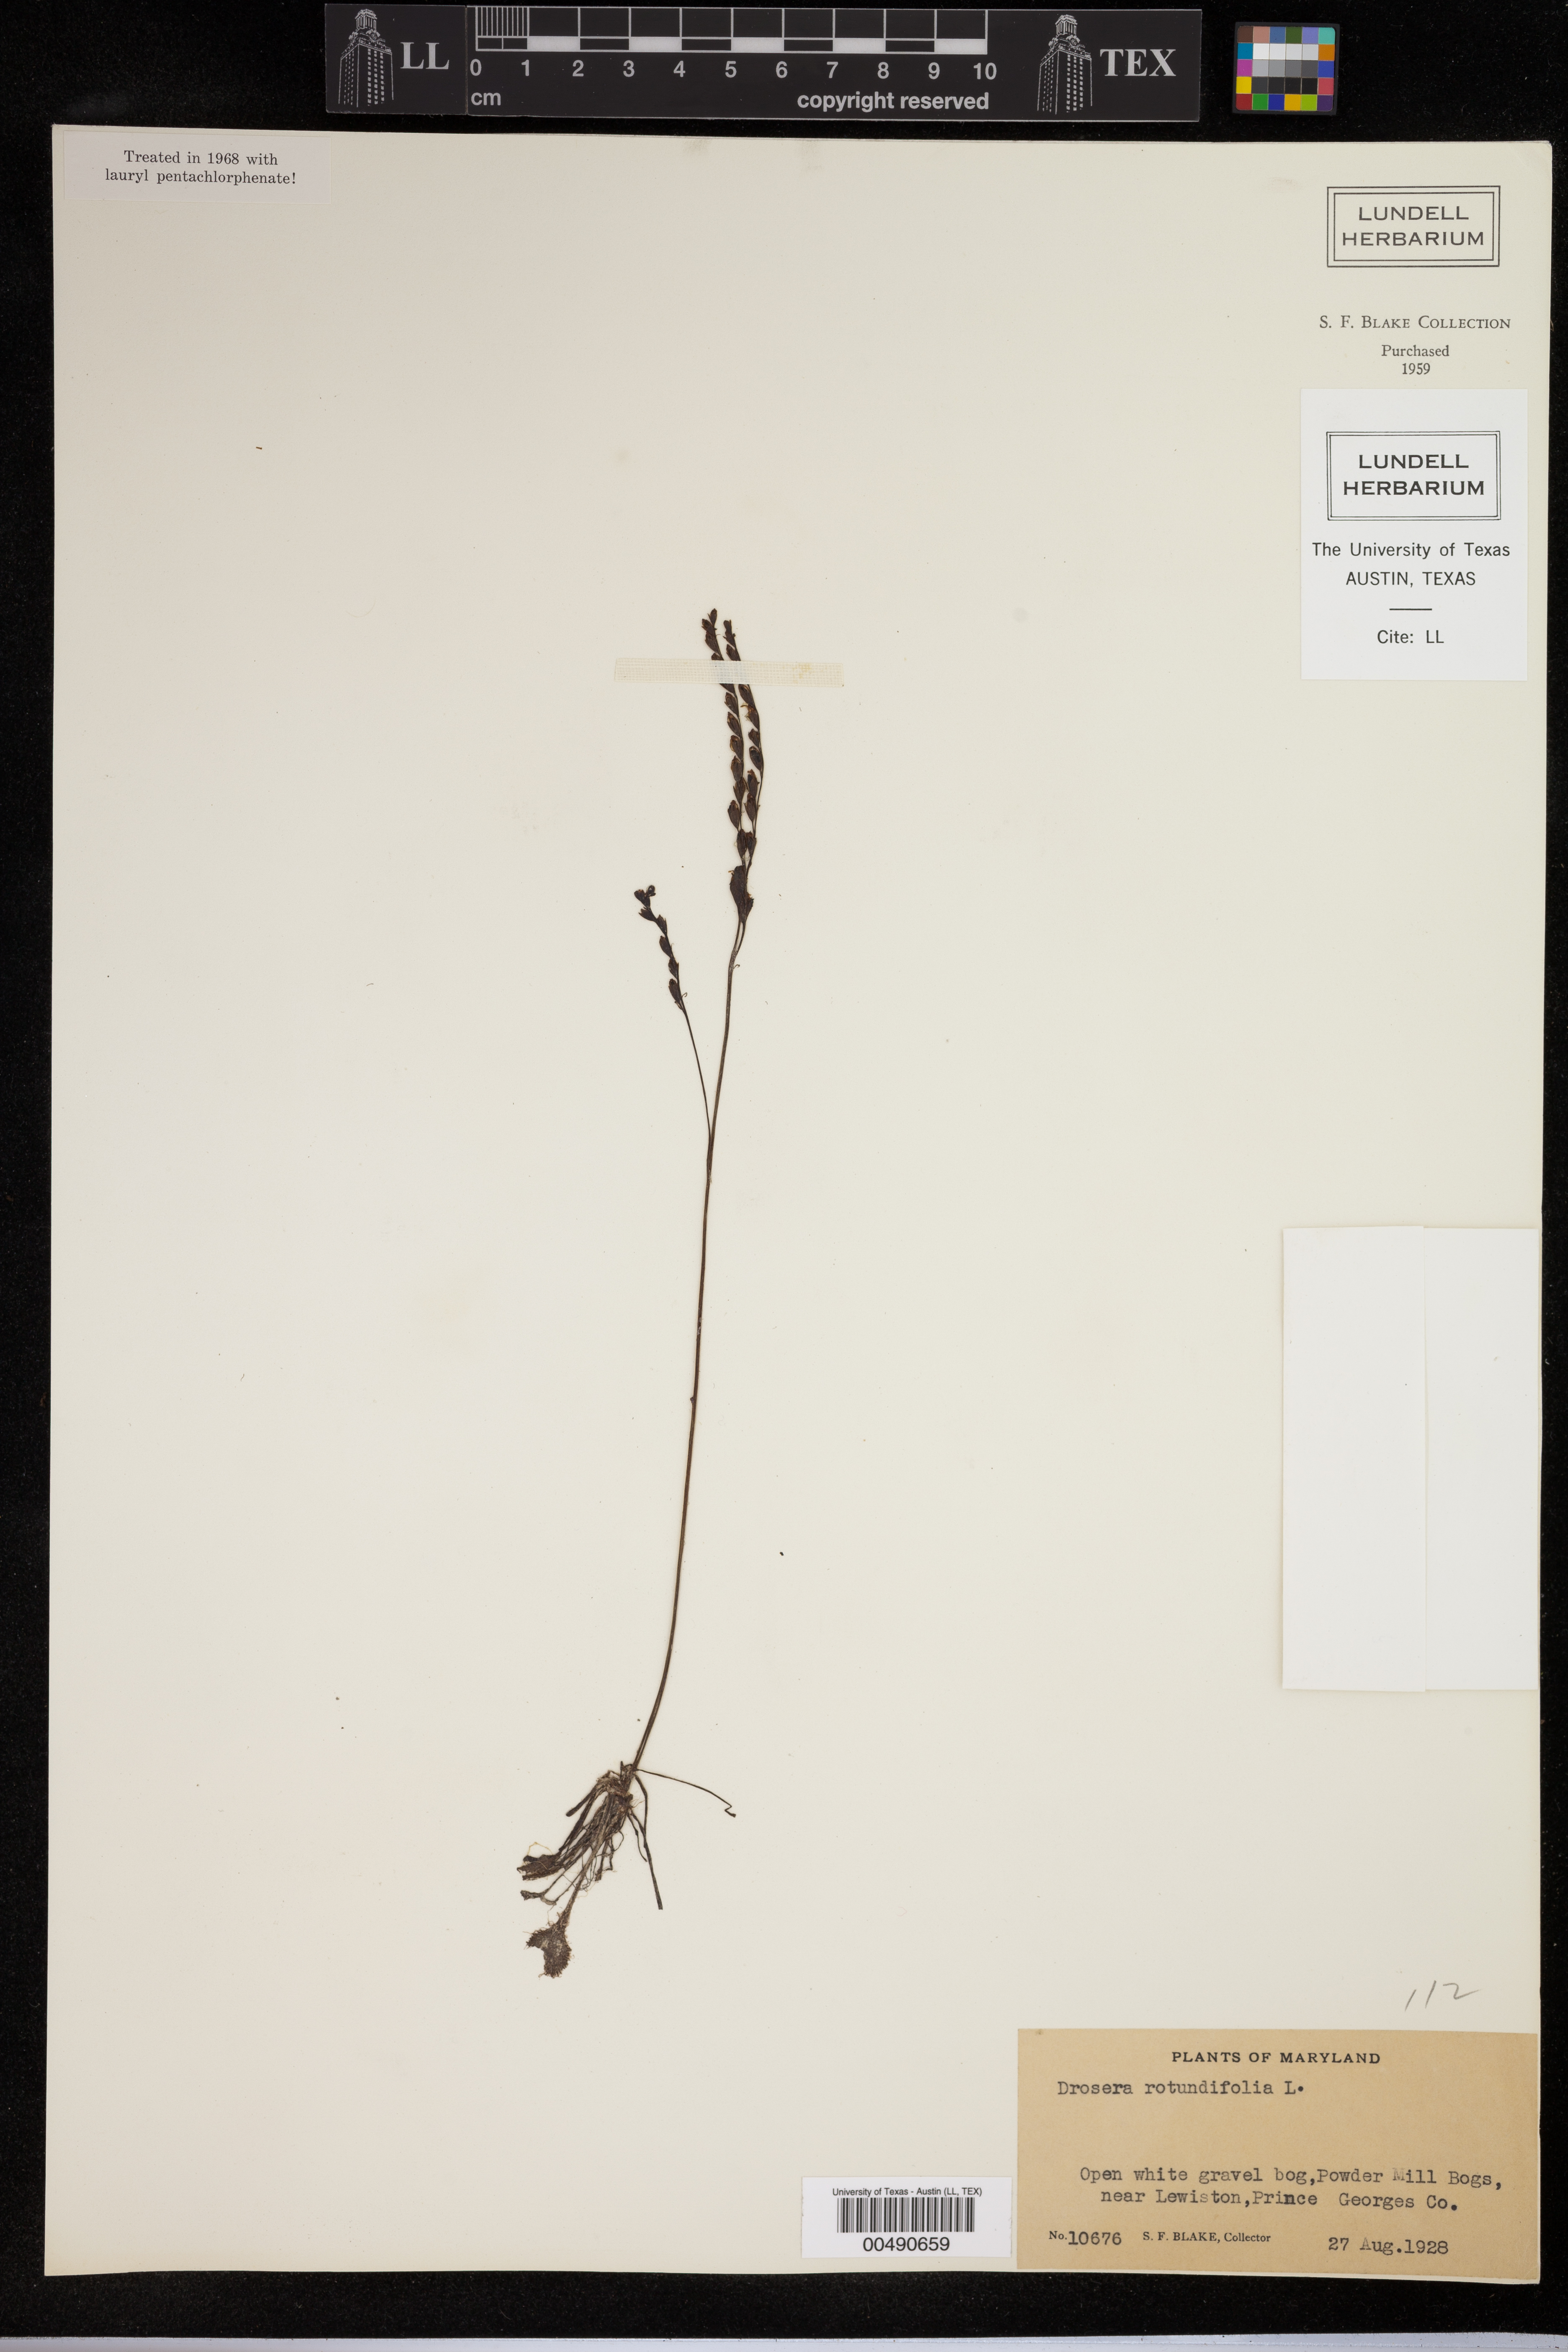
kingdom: Plantae
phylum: Tracheophyta
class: Magnoliopsida
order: Caryophyllales
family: Droseraceae
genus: Drosera
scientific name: Drosera rotundifolia
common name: Round-leaved sundew
